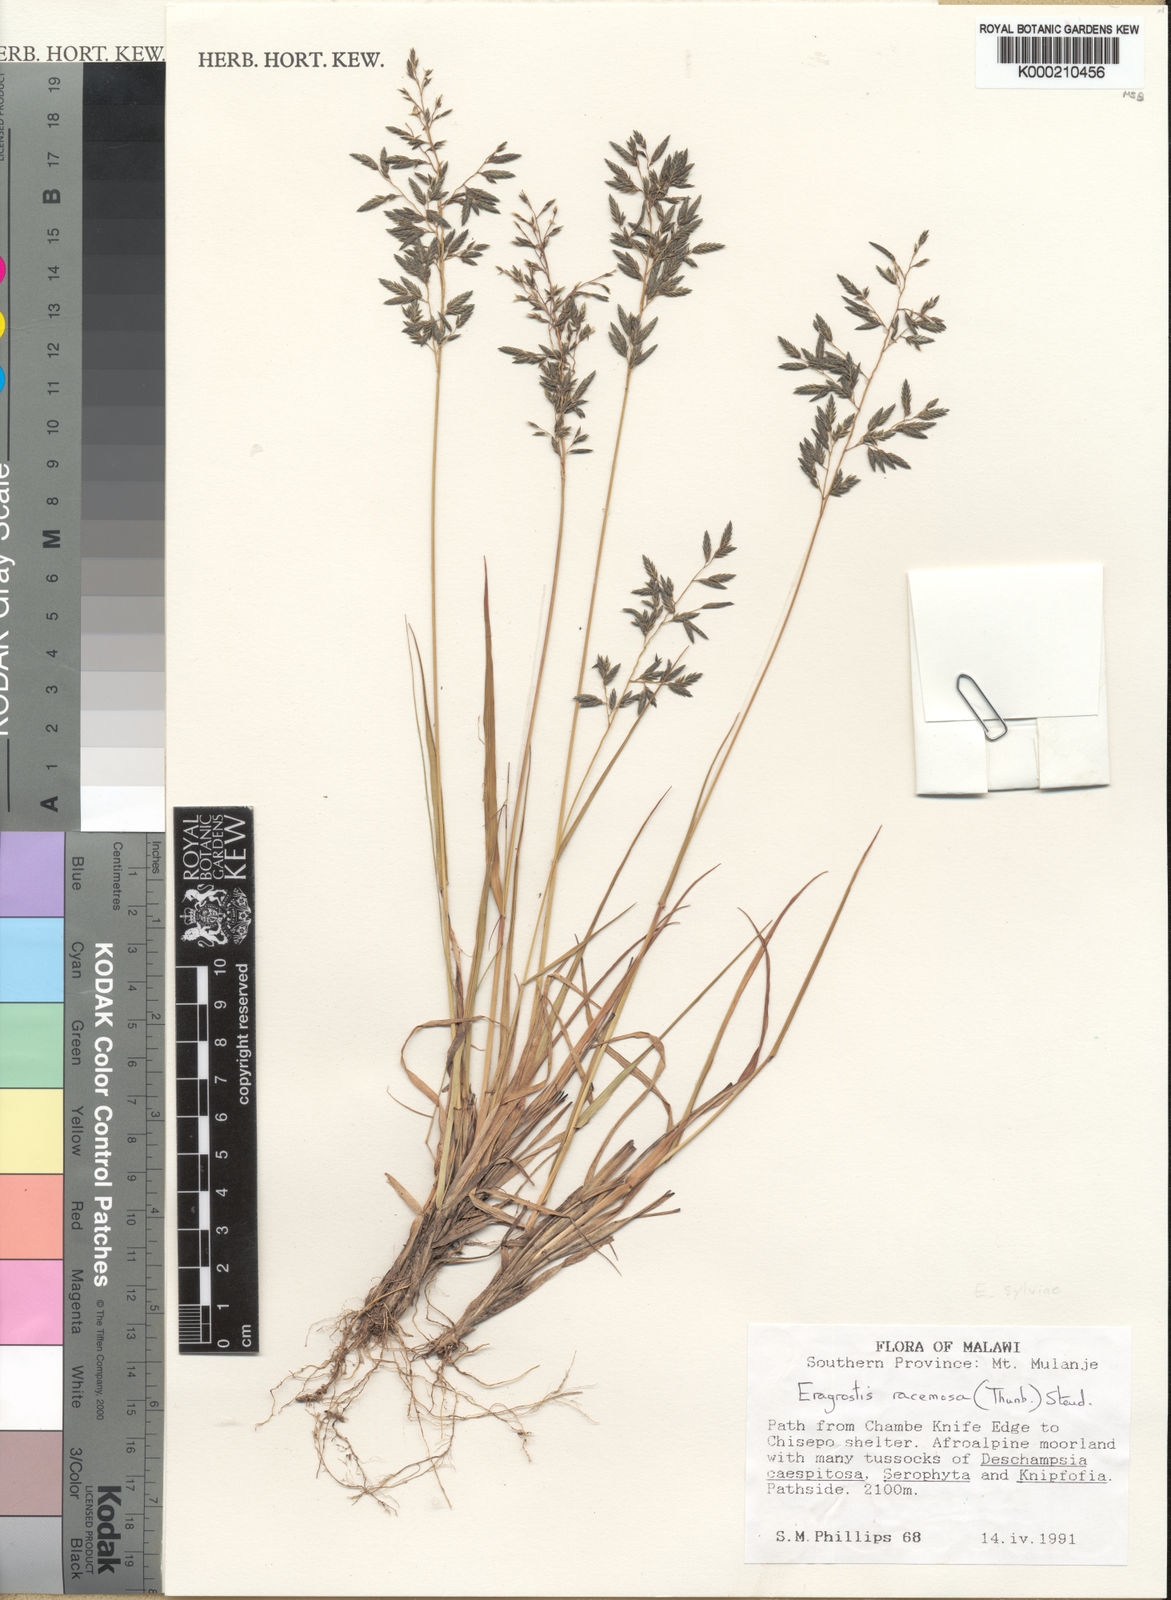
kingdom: Plantae
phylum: Tracheophyta
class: Liliopsida
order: Poales
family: Poaceae
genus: Eragrostis
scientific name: Eragrostis sylviae
